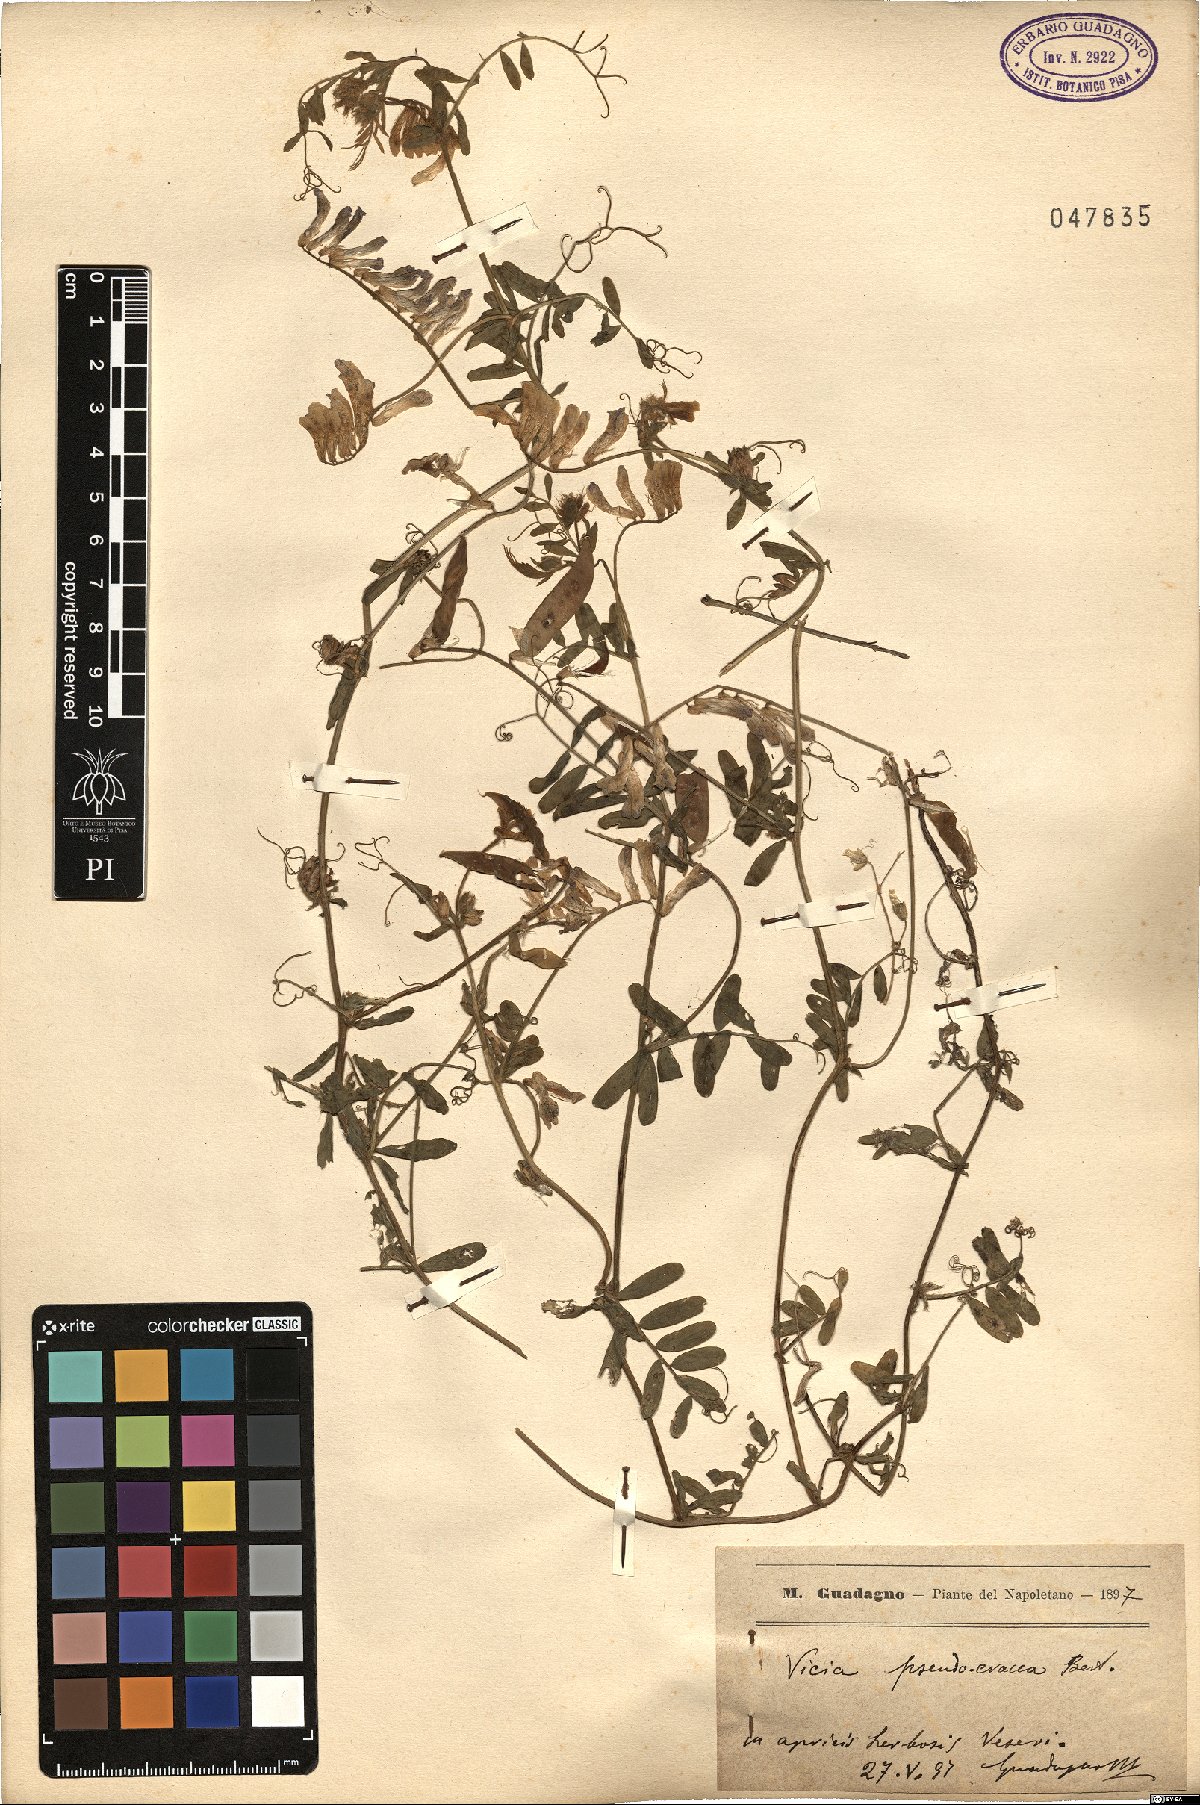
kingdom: Plantae
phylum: Tracheophyta
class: Magnoliopsida
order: Fabales
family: Fabaceae
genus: Vicia
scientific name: Vicia villosa
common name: Fodder vetch
